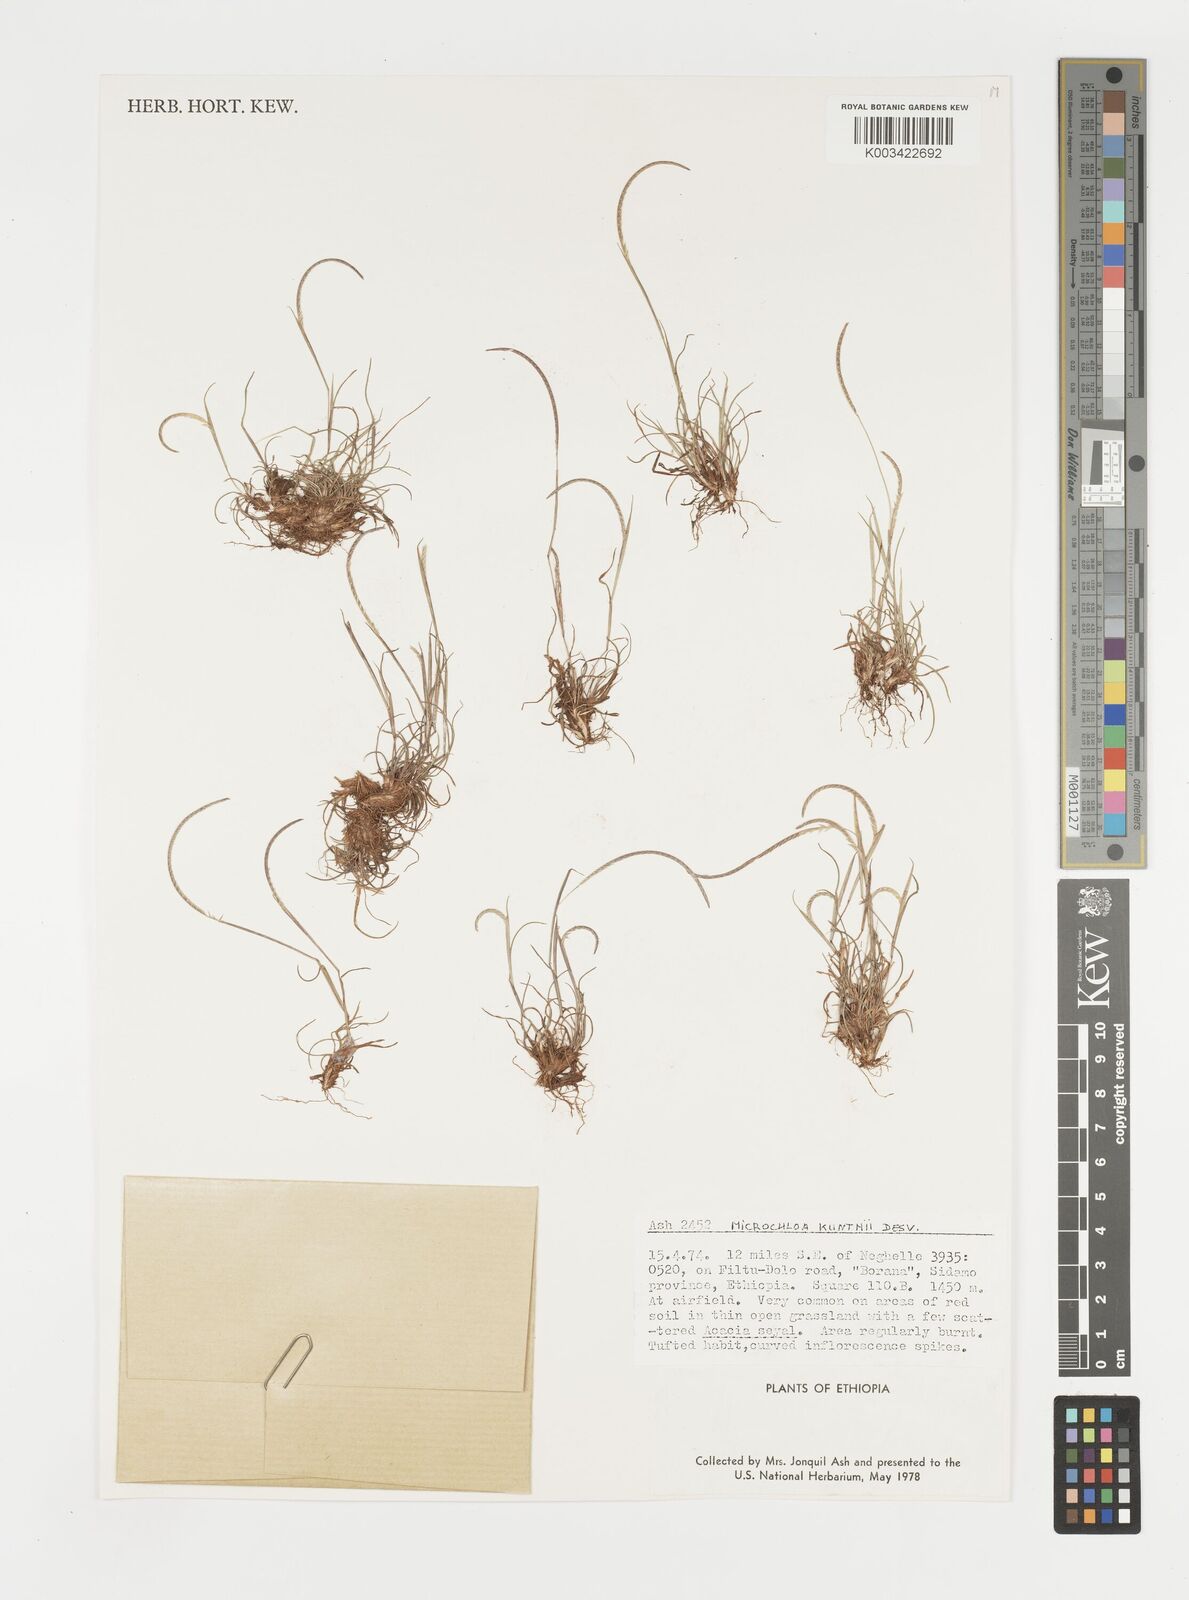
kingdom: Plantae
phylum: Tracheophyta
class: Liliopsida
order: Poales
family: Poaceae
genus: Microchloa
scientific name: Microchloa kunthii
